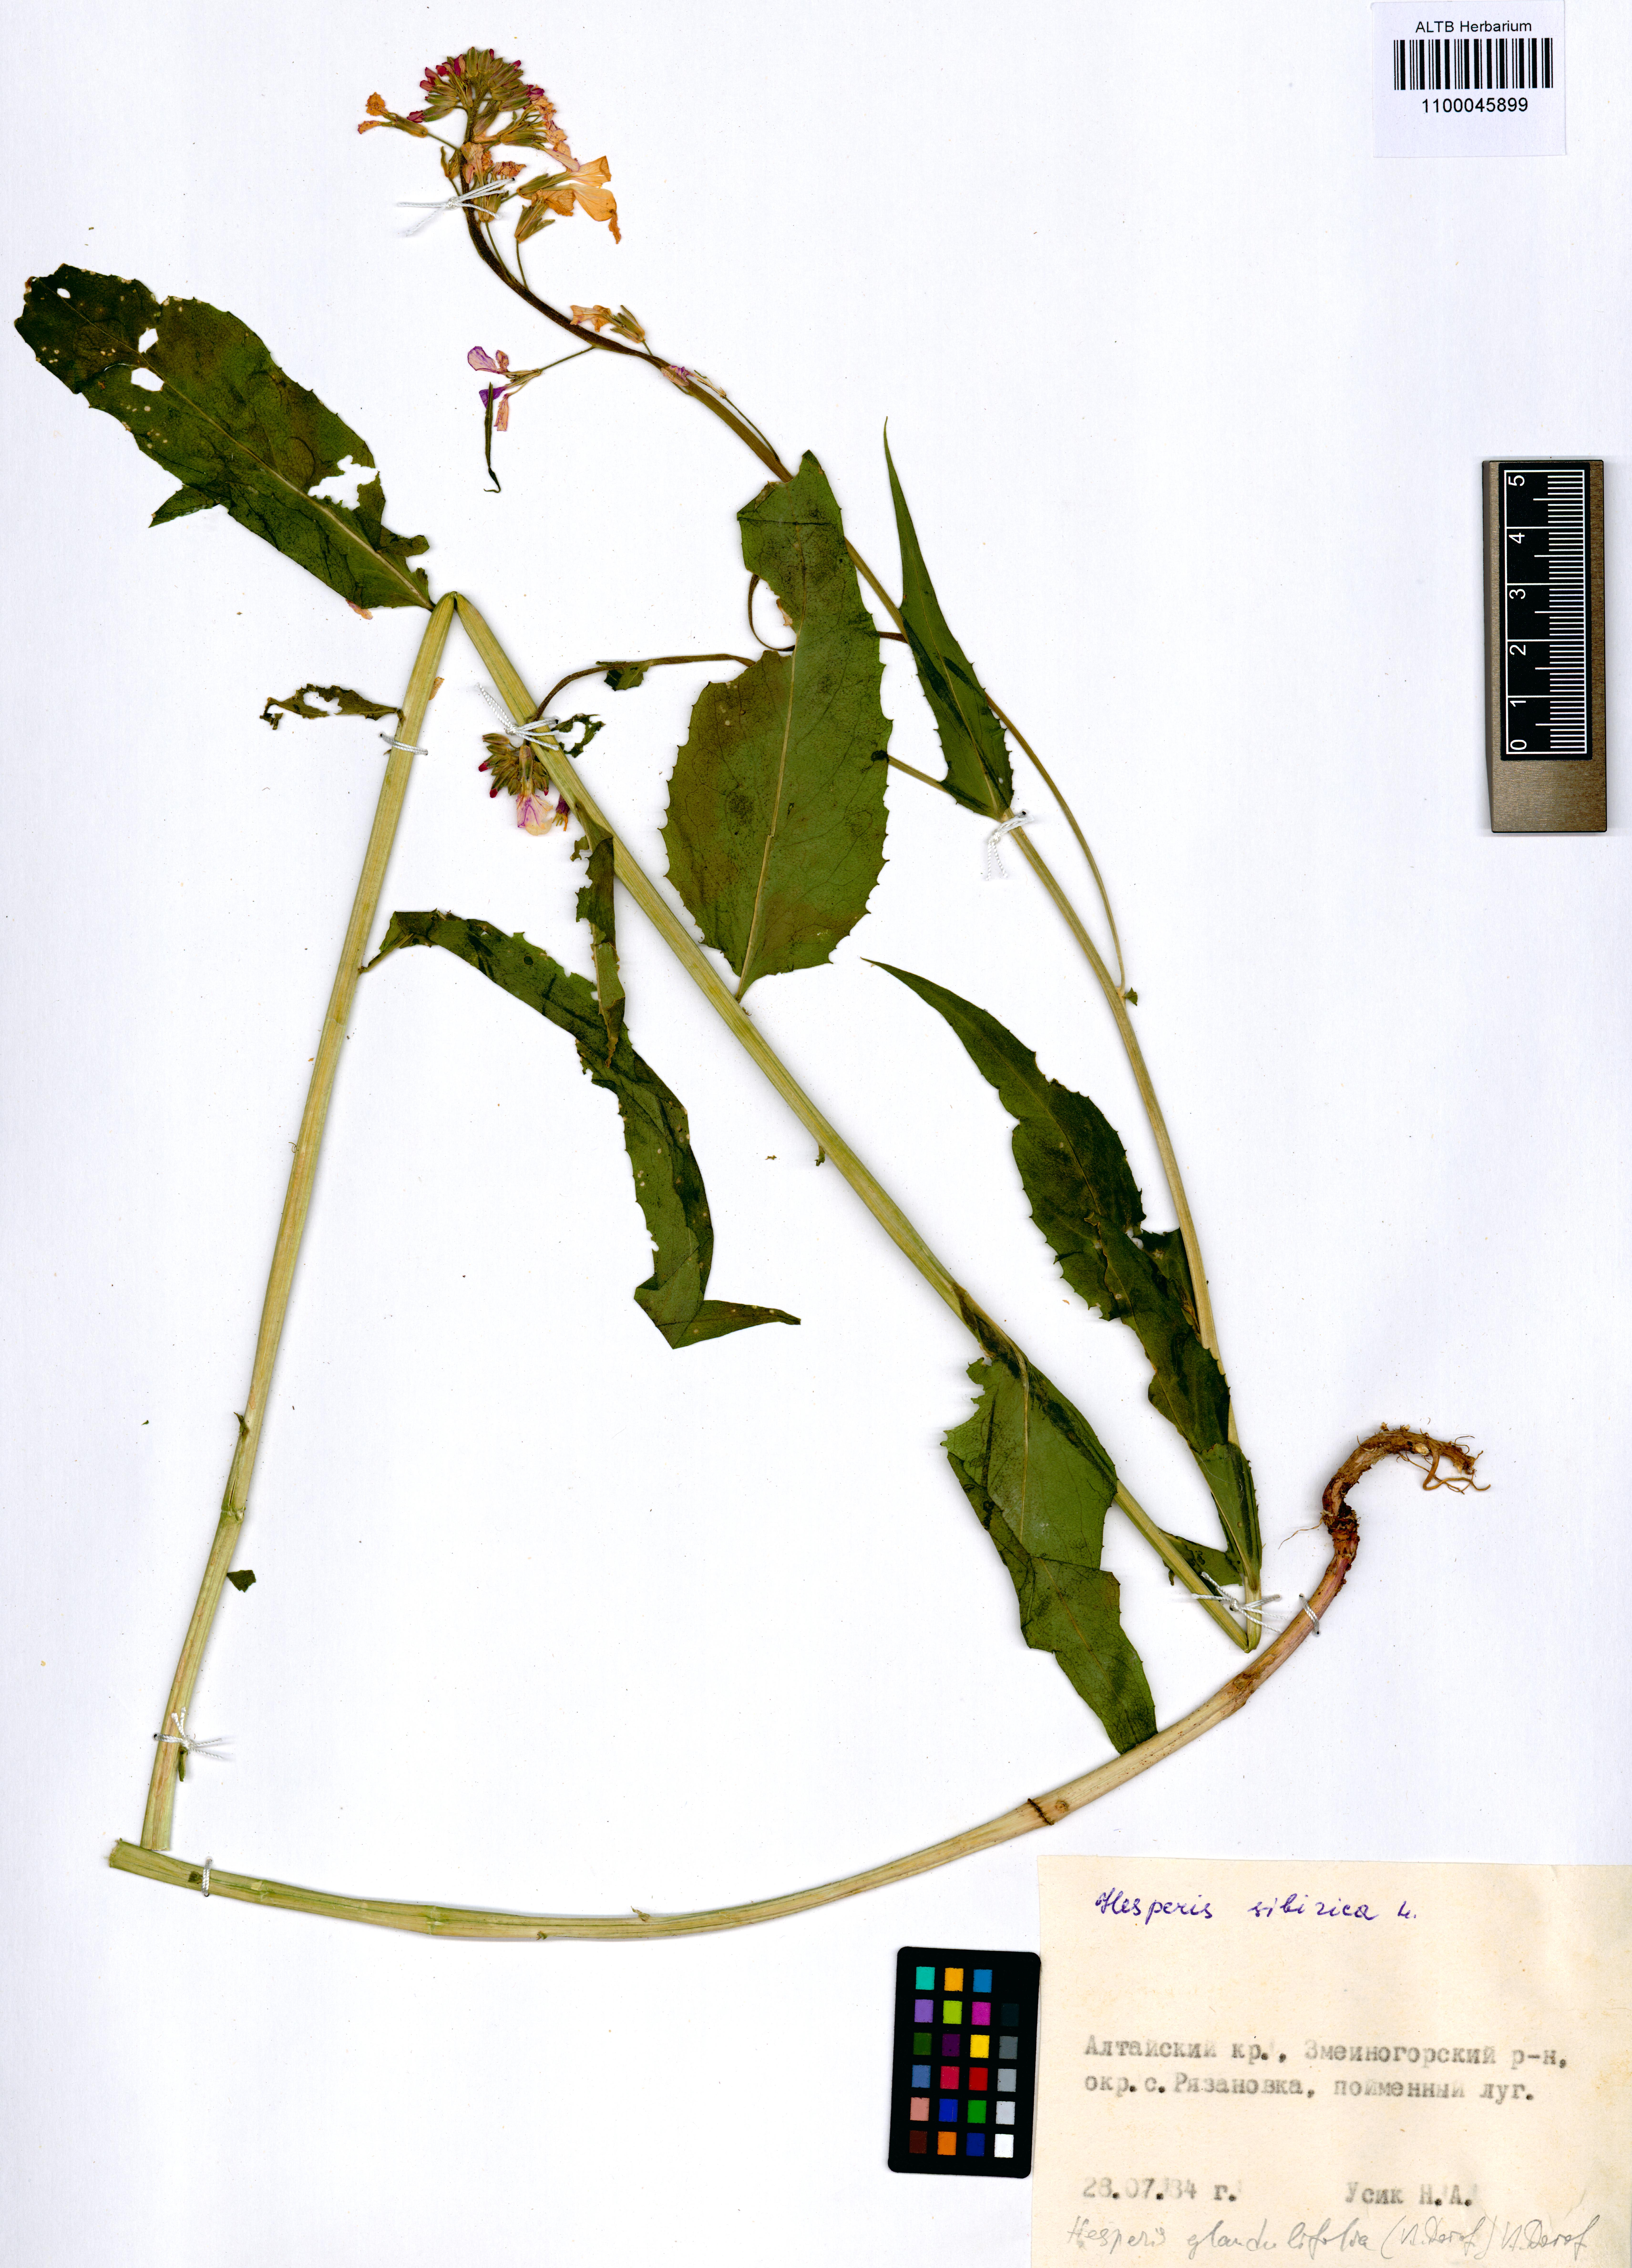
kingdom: Plantae
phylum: Tracheophyta
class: Magnoliopsida
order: Brassicales
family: Brassicaceae
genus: Hesperis
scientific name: Hesperis sibirica
